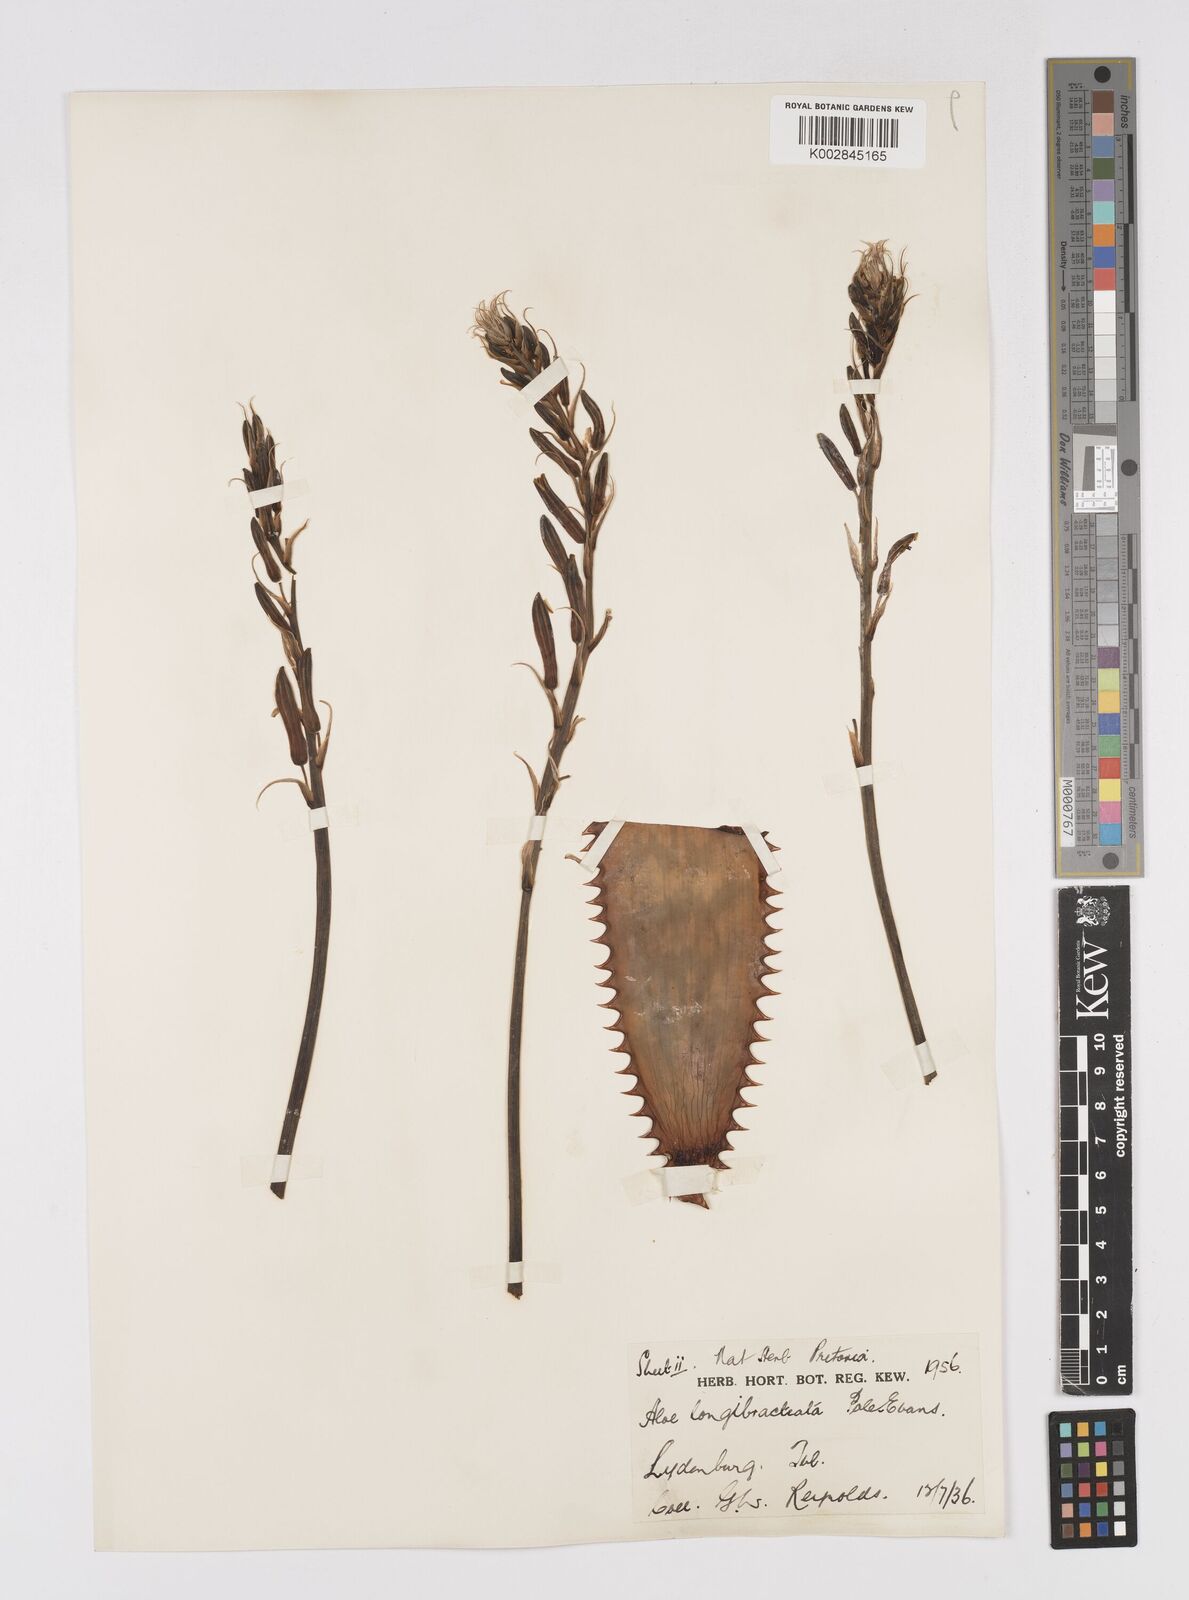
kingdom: Plantae
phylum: Tracheophyta
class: Liliopsida
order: Asparagales
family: Asphodelaceae
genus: Aloe
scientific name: Aloe longibracteata
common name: Limpopo spotted aloe
